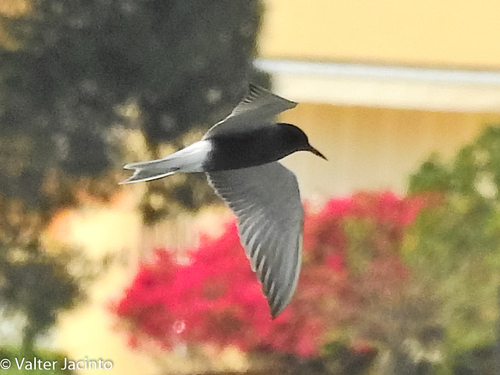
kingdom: Animalia
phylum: Chordata
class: Aves
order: Charadriiformes
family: Laridae
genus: Chlidonias
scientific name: Chlidonias niger
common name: Black tern
